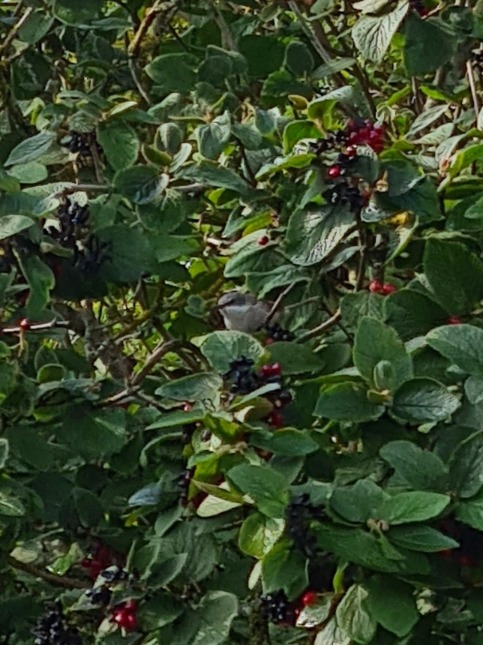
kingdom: Animalia
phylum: Chordata
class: Aves
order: Passeriformes
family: Sylviidae
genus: Sylvia
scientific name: Sylvia curruca
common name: Gærdesanger
